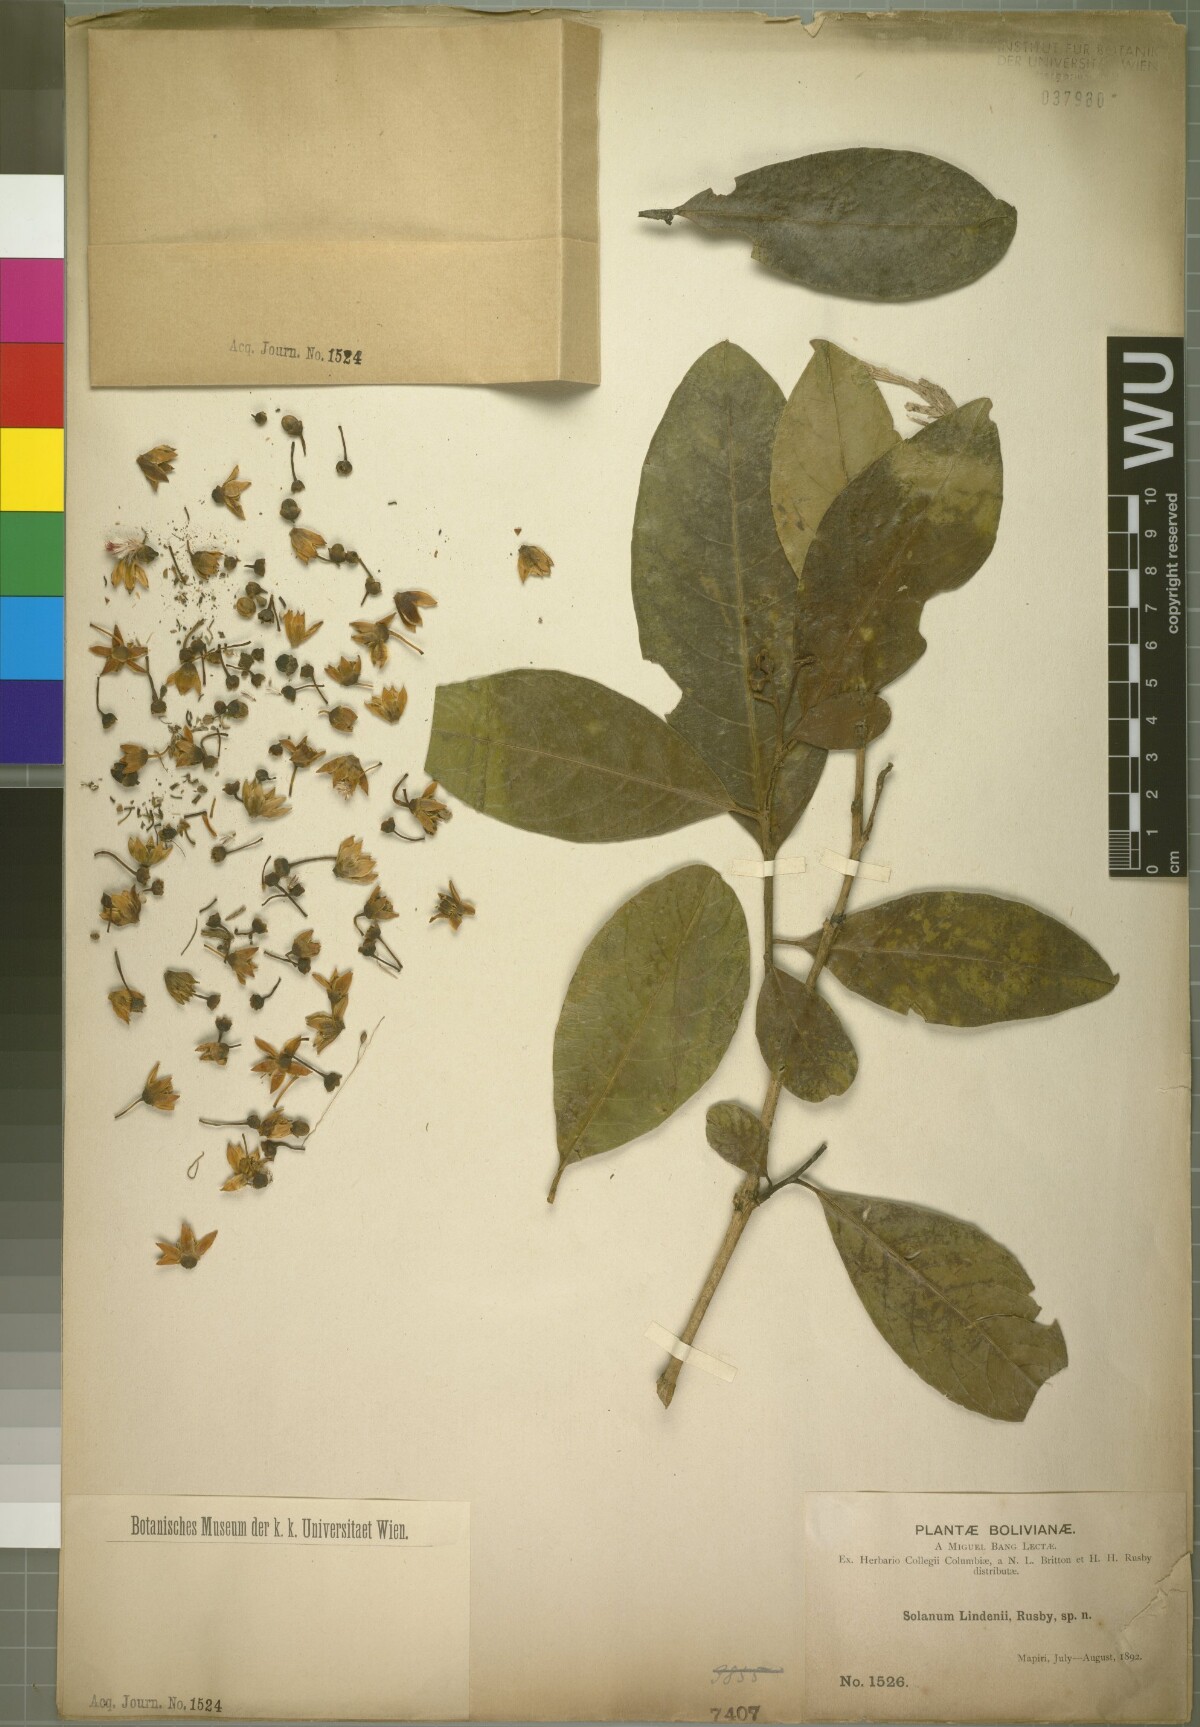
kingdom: Plantae
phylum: Tracheophyta
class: Magnoliopsida
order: Solanales
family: Solanaceae
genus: Solanum
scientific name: Solanum lindenii
